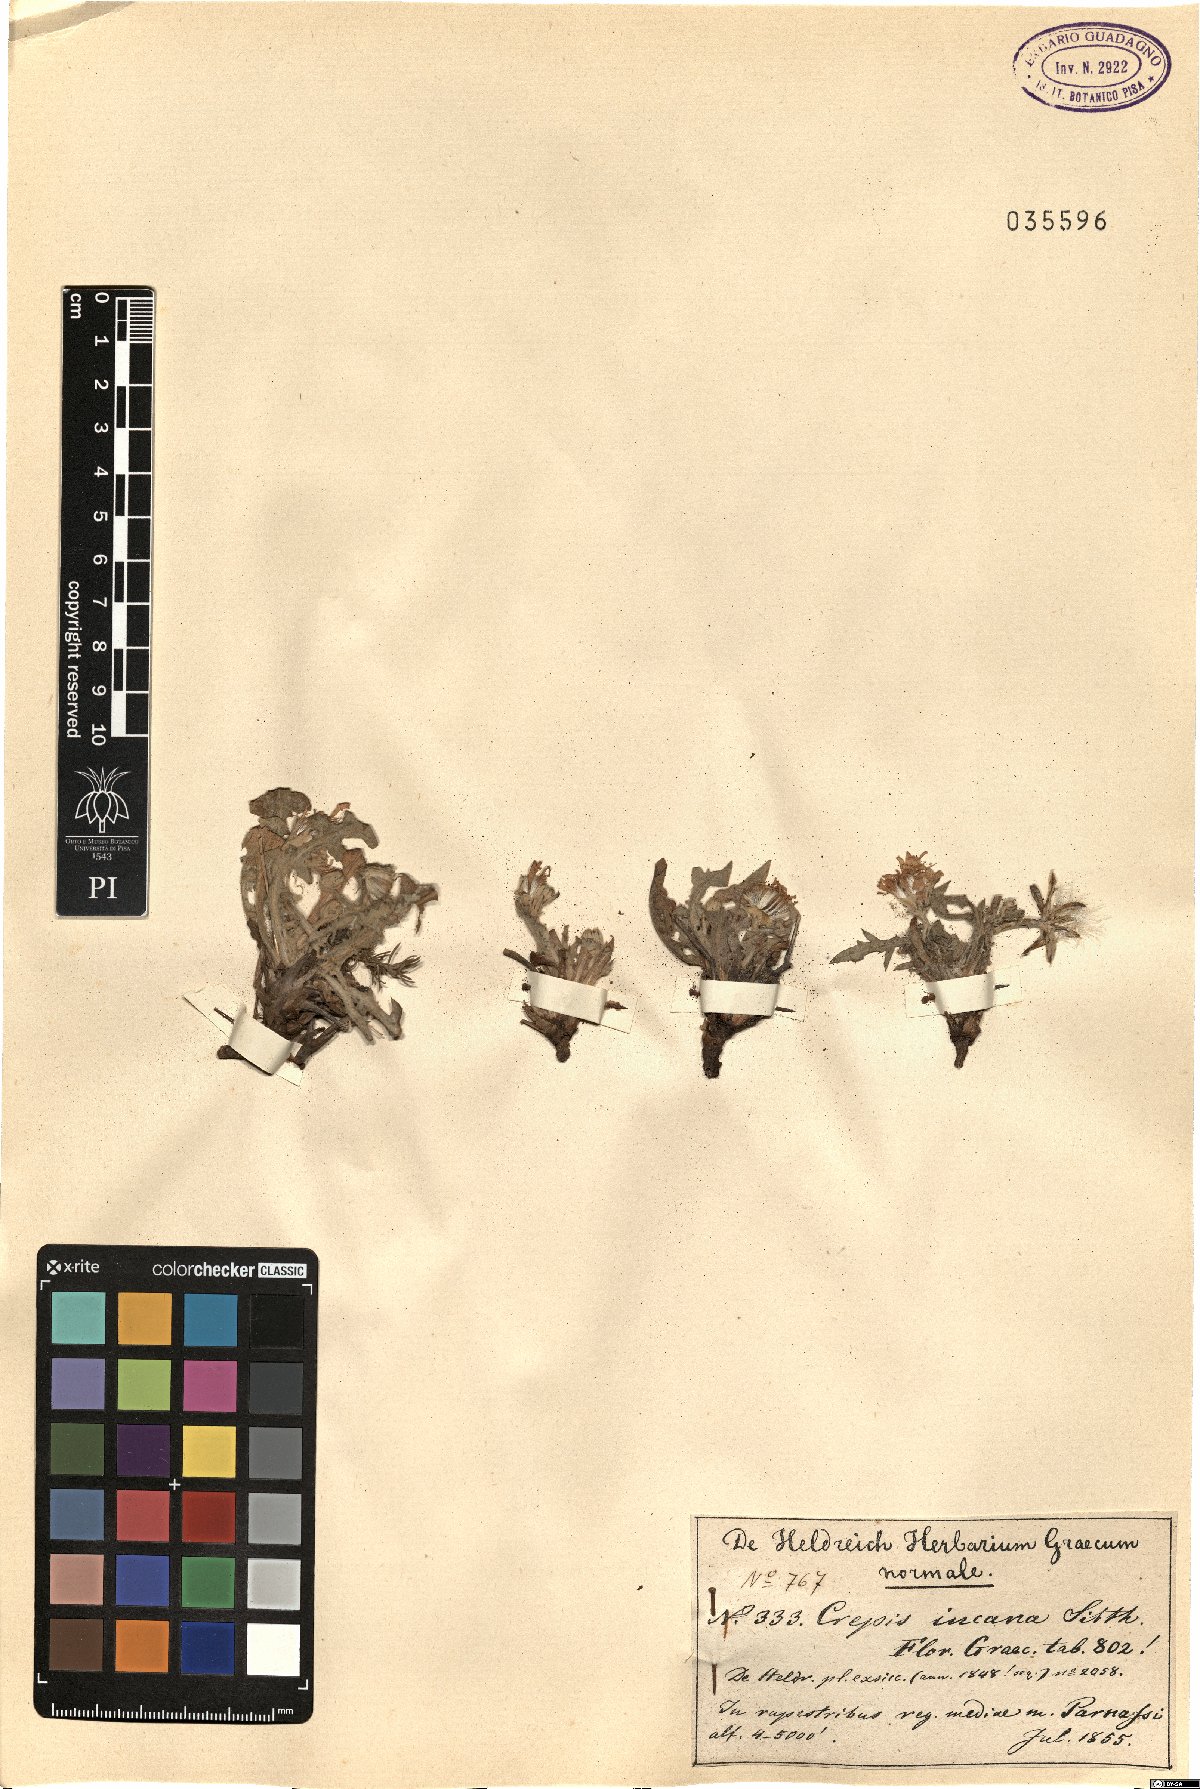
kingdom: Plantae
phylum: Tracheophyta
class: Magnoliopsida
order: Asterales
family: Asteraceae
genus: Crepis
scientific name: Crepis incana
